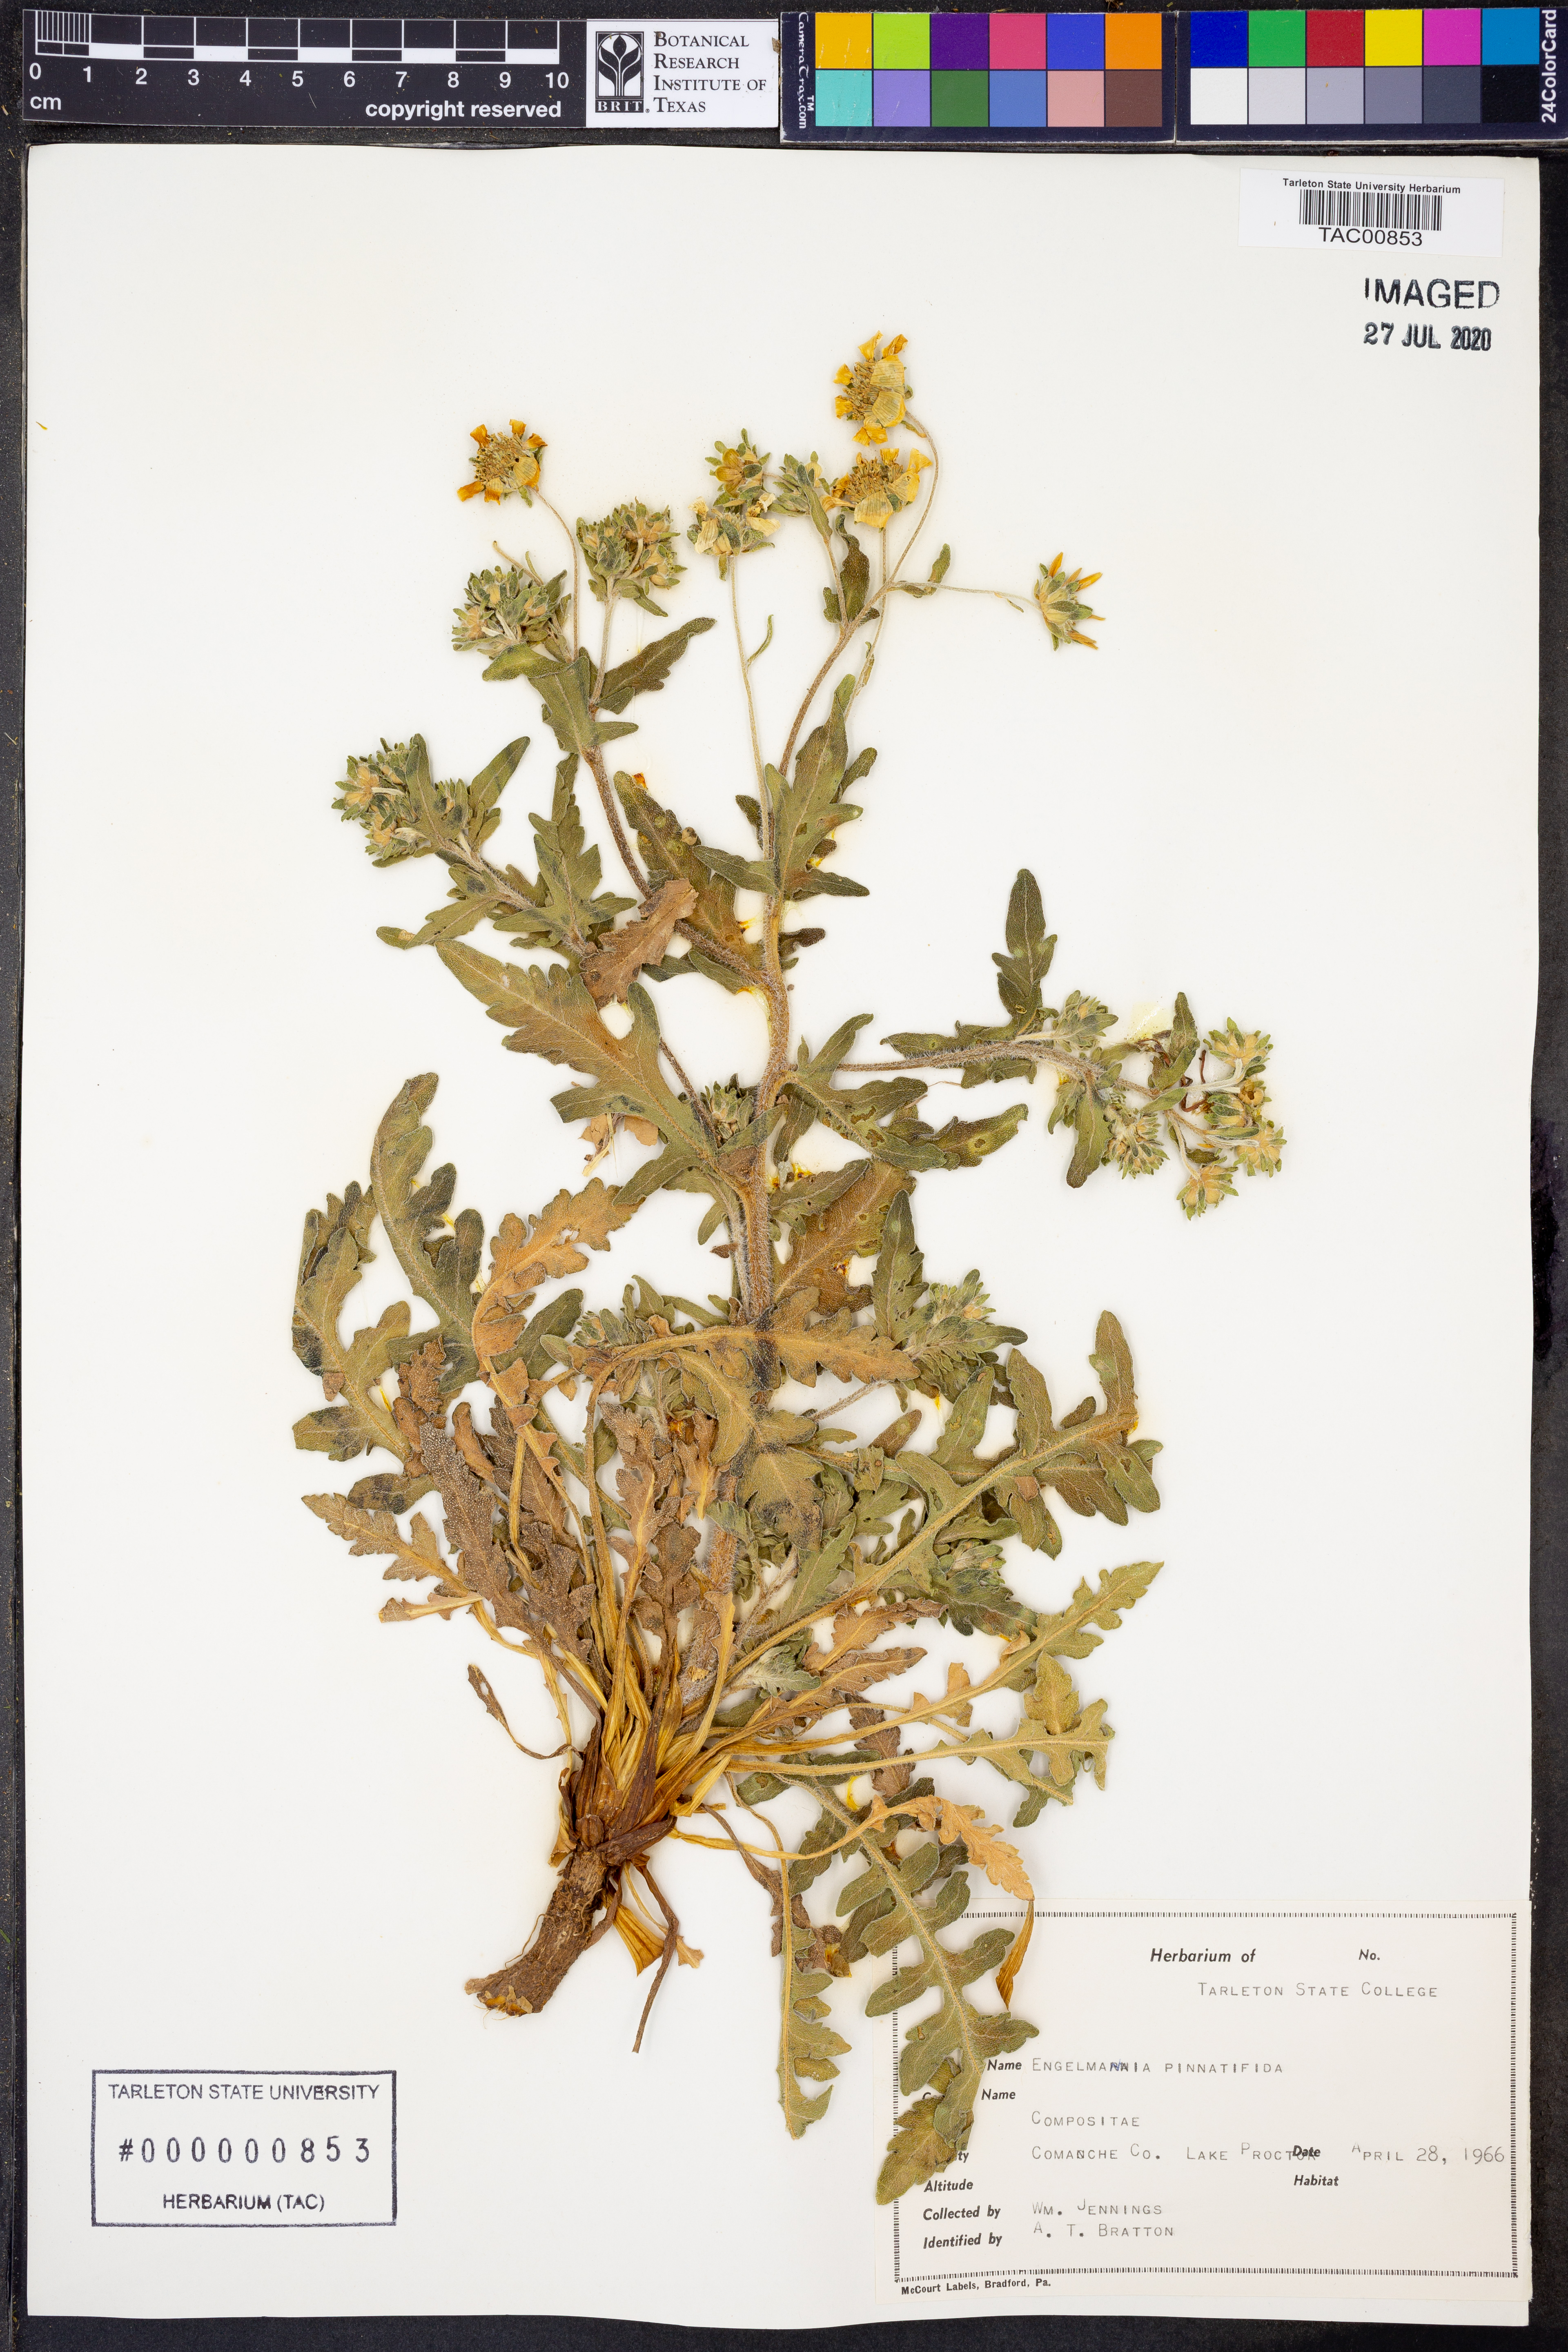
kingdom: Plantae
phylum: Tracheophyta
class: Magnoliopsida
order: Asterales
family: Asteraceae
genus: Engelmannia
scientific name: Engelmannia peristenia
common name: Engelmann's daisy
